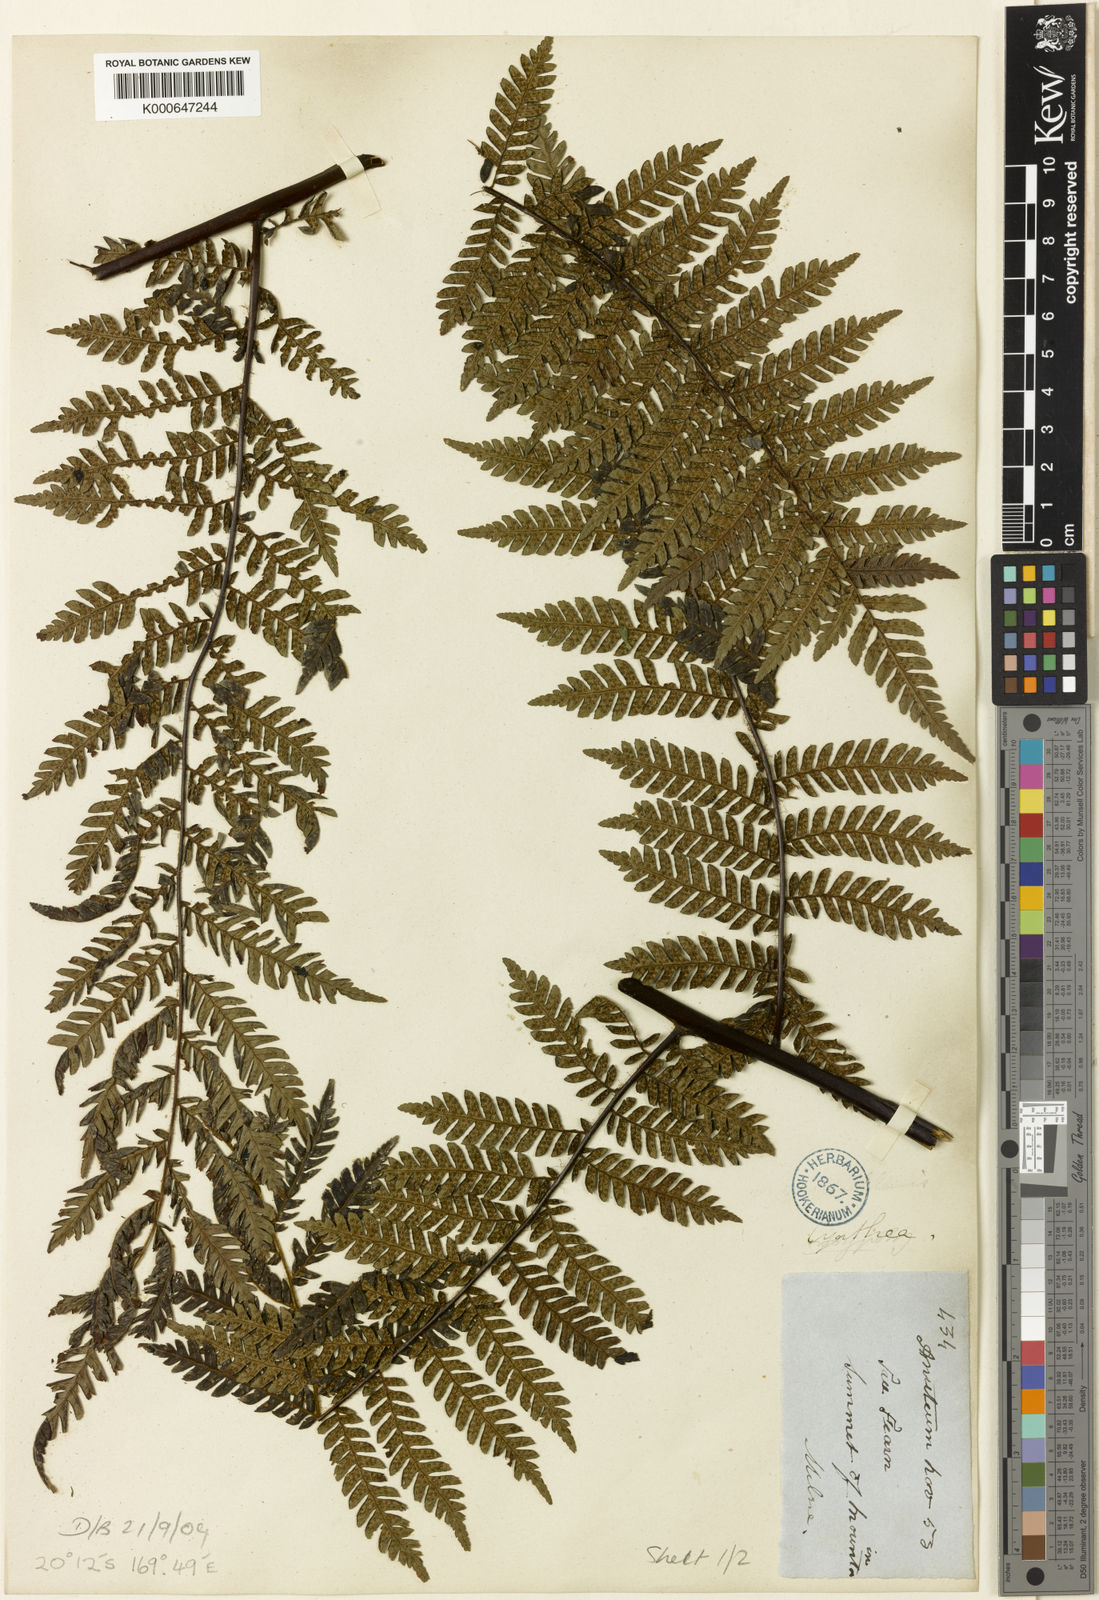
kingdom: Plantae
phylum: Tracheophyta
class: Polypodiopsida
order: Cyatheales
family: Cyatheaceae
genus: Alsophila
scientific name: Alsophila aneitensis
